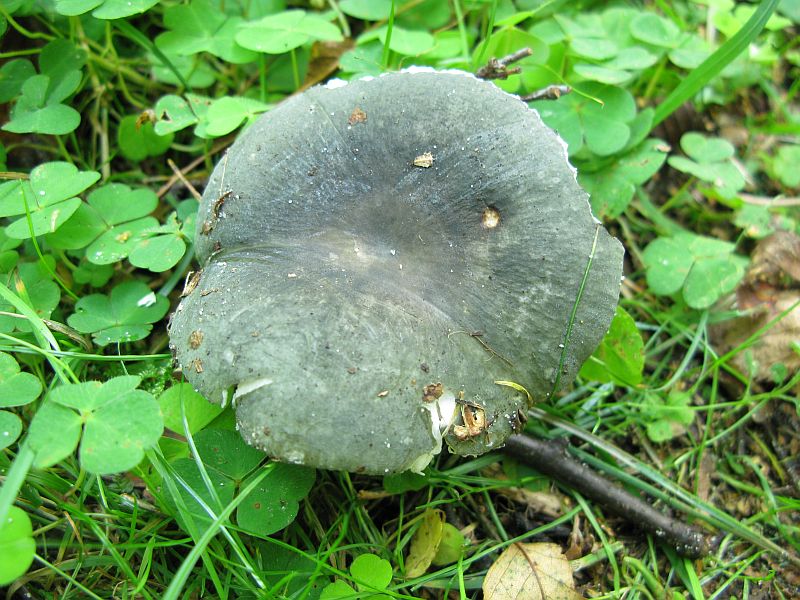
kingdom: Fungi
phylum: Basidiomycota
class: Agaricomycetes
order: Russulales
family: Russulaceae
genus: Russula
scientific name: Russula
